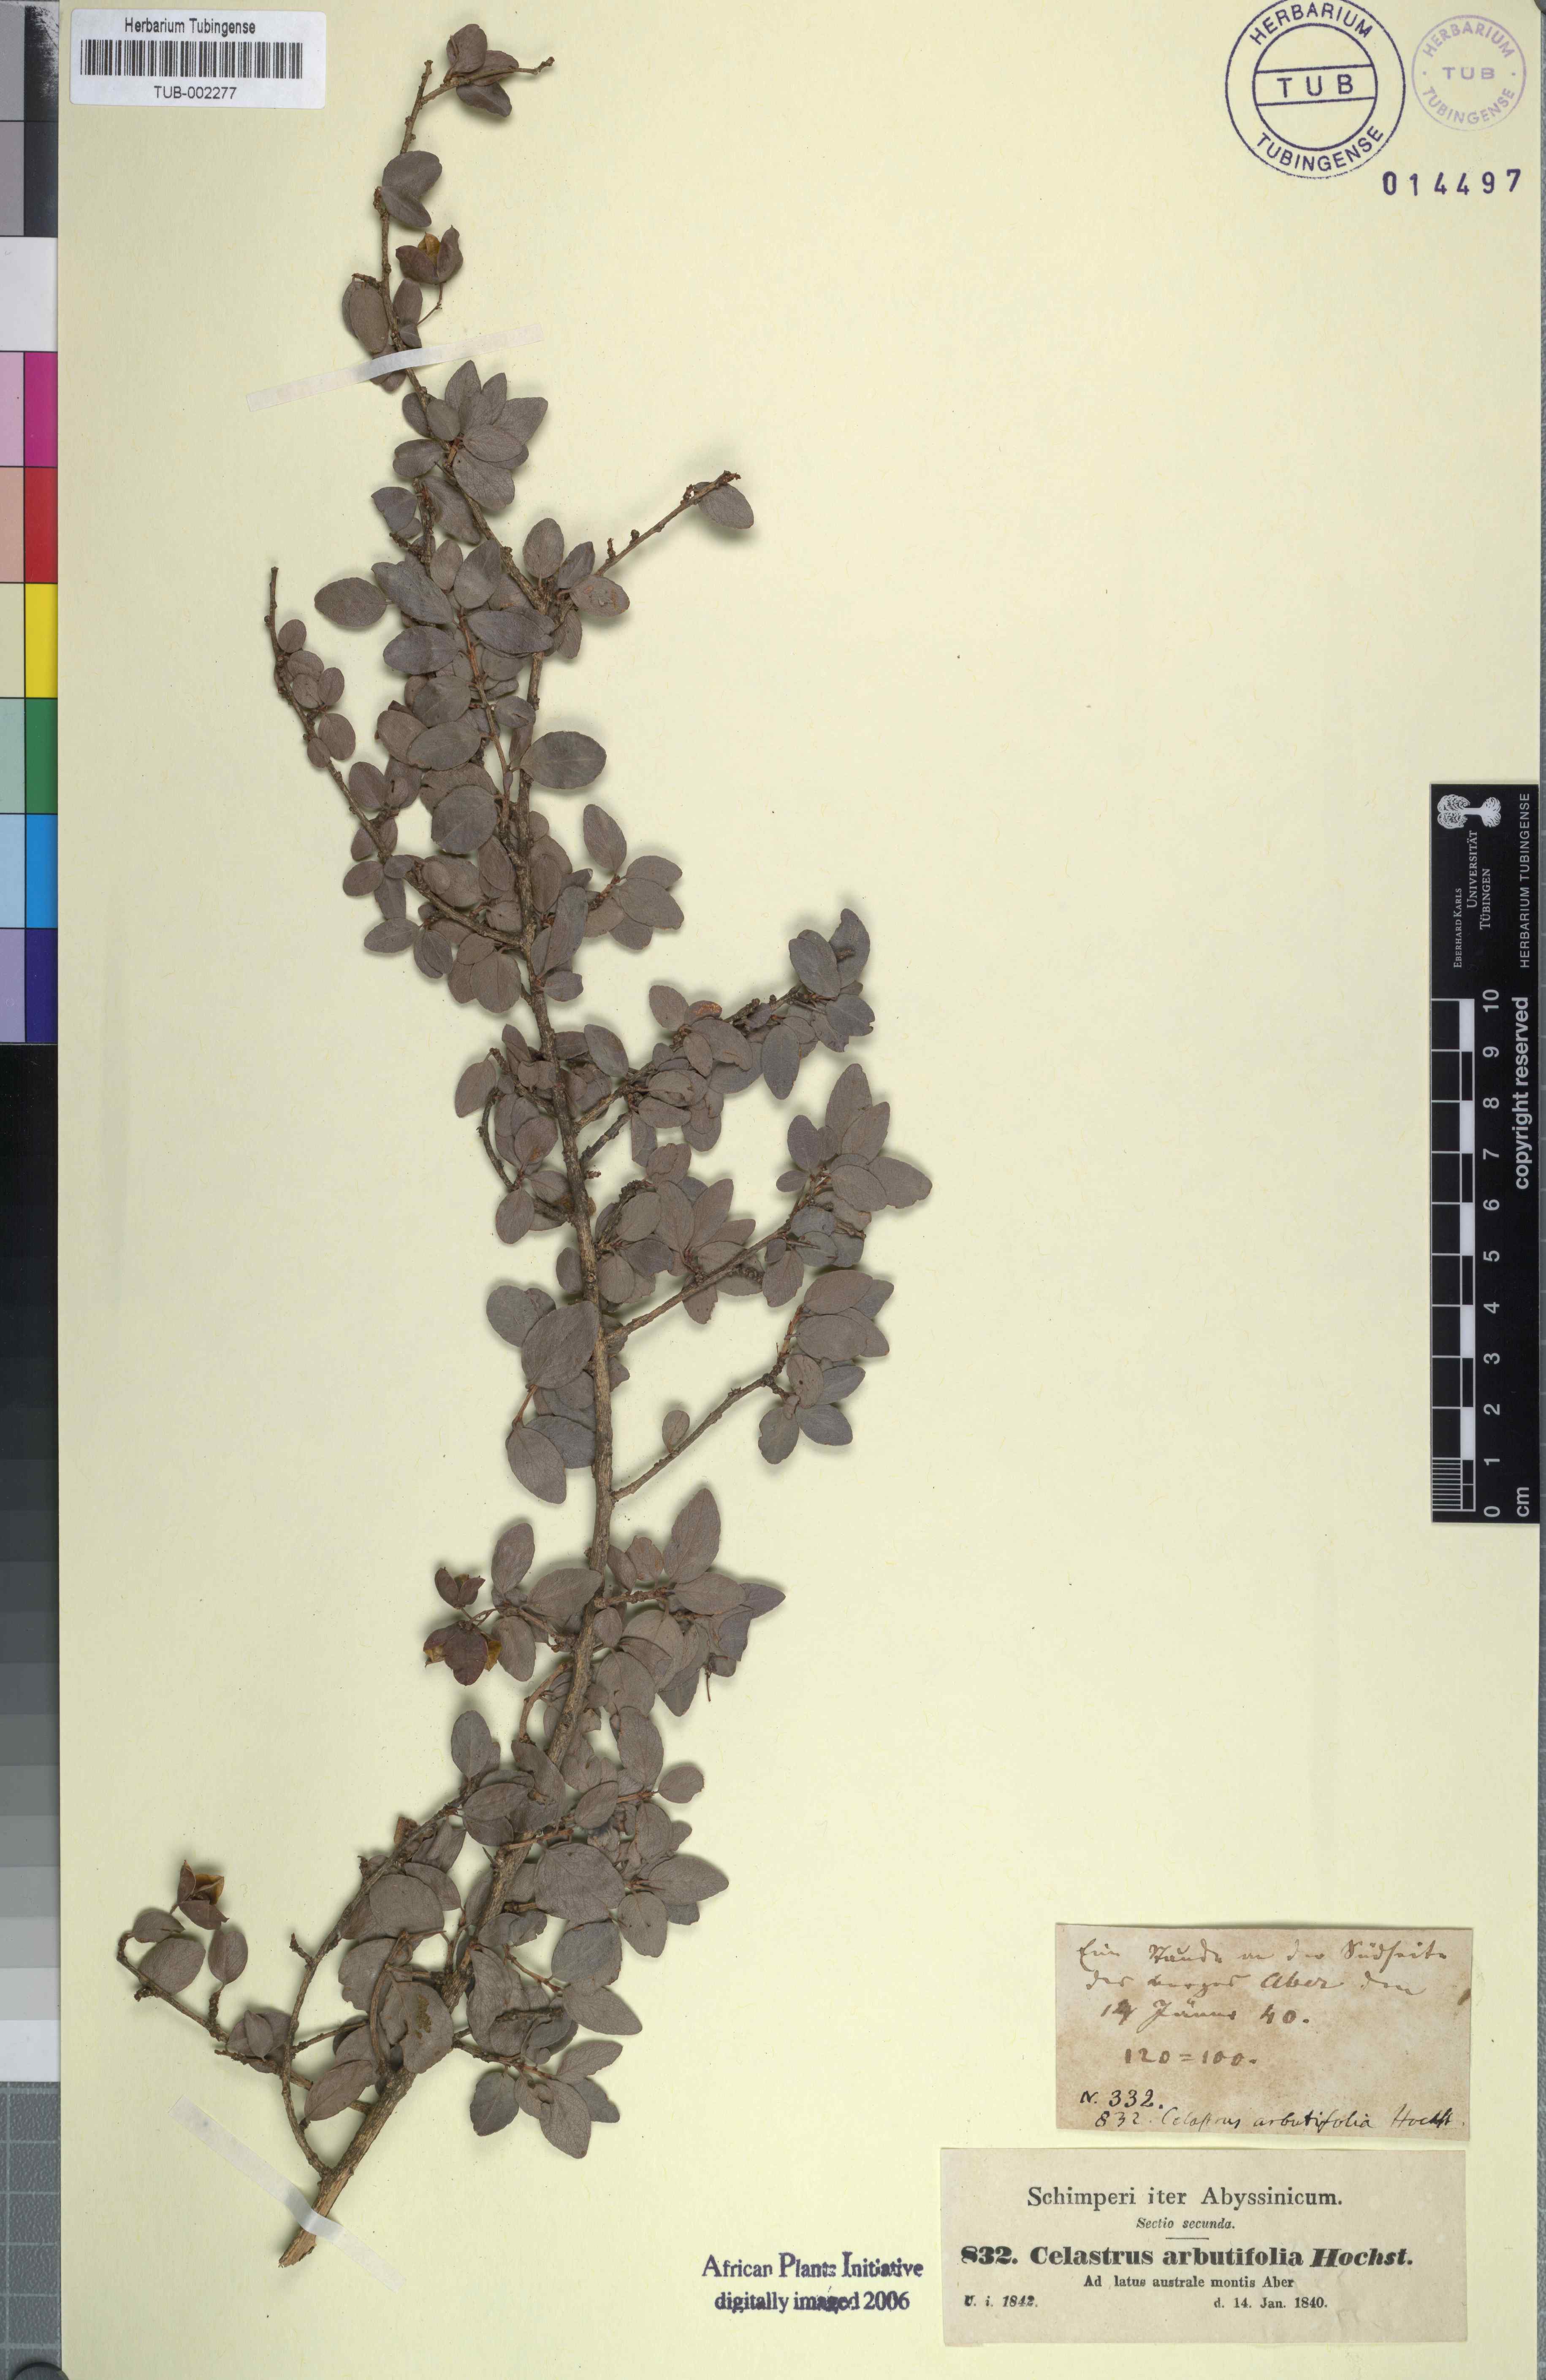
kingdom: Plantae
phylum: Tracheophyta
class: Magnoliopsida
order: Celastrales
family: Celastraceae
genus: Gymnosporia
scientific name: Gymnosporia arbutifolia
